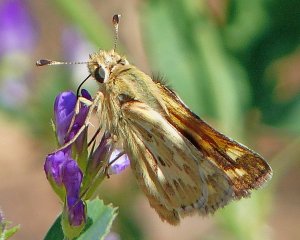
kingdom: Animalia
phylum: Arthropoda
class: Insecta
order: Lepidoptera
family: Hesperiidae
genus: Polites
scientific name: Polites sabuleti
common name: Sandhill Skipper
